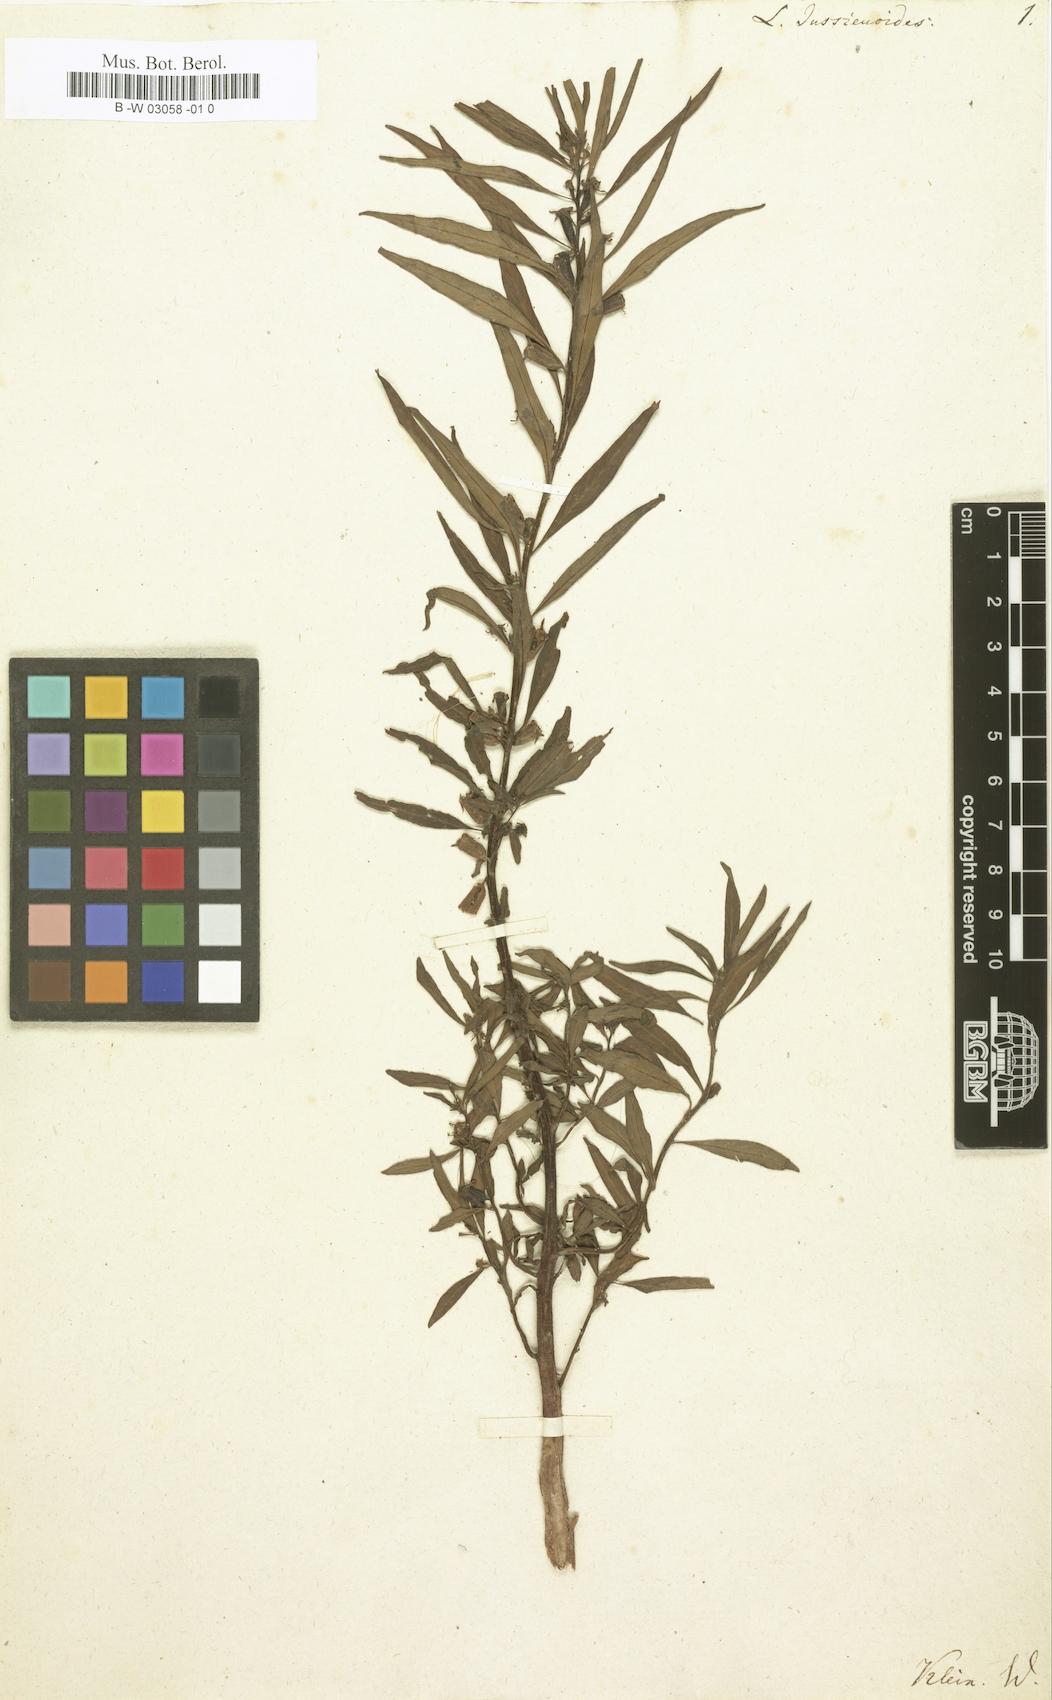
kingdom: Plantae
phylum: Tracheophyta
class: Magnoliopsida
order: Myrtales
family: Onagraceae
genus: Ludwigia
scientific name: Ludwigia jussiaeoides
